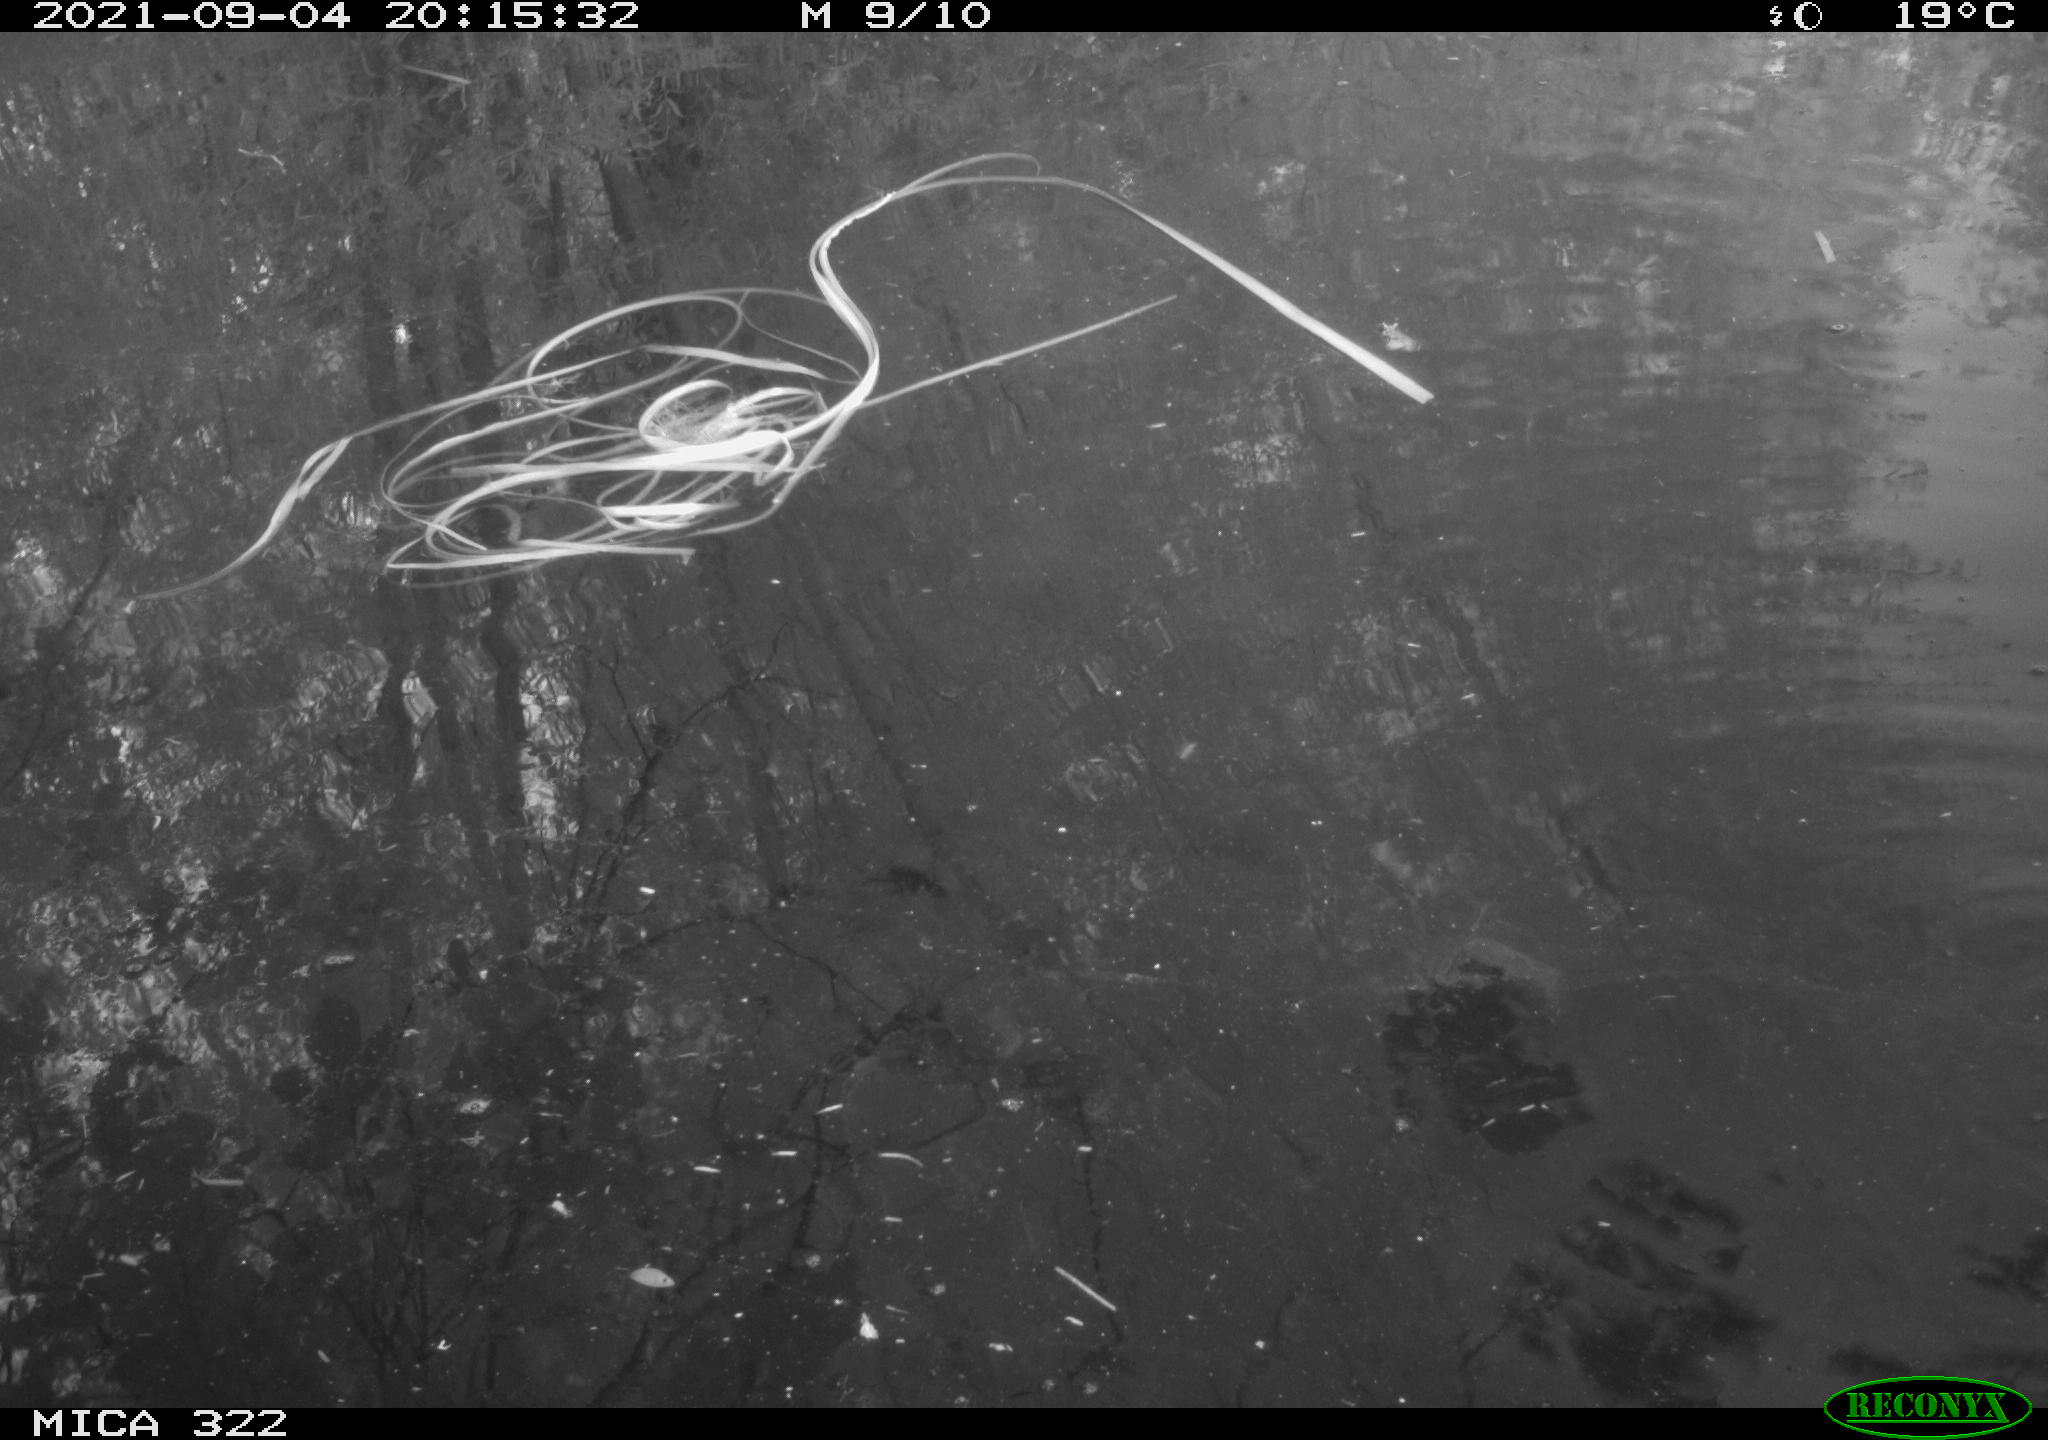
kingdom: Animalia
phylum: Chordata
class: Aves
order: Gruiformes
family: Rallidae
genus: Gallinula
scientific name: Gallinula chloropus
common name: Common moorhen
